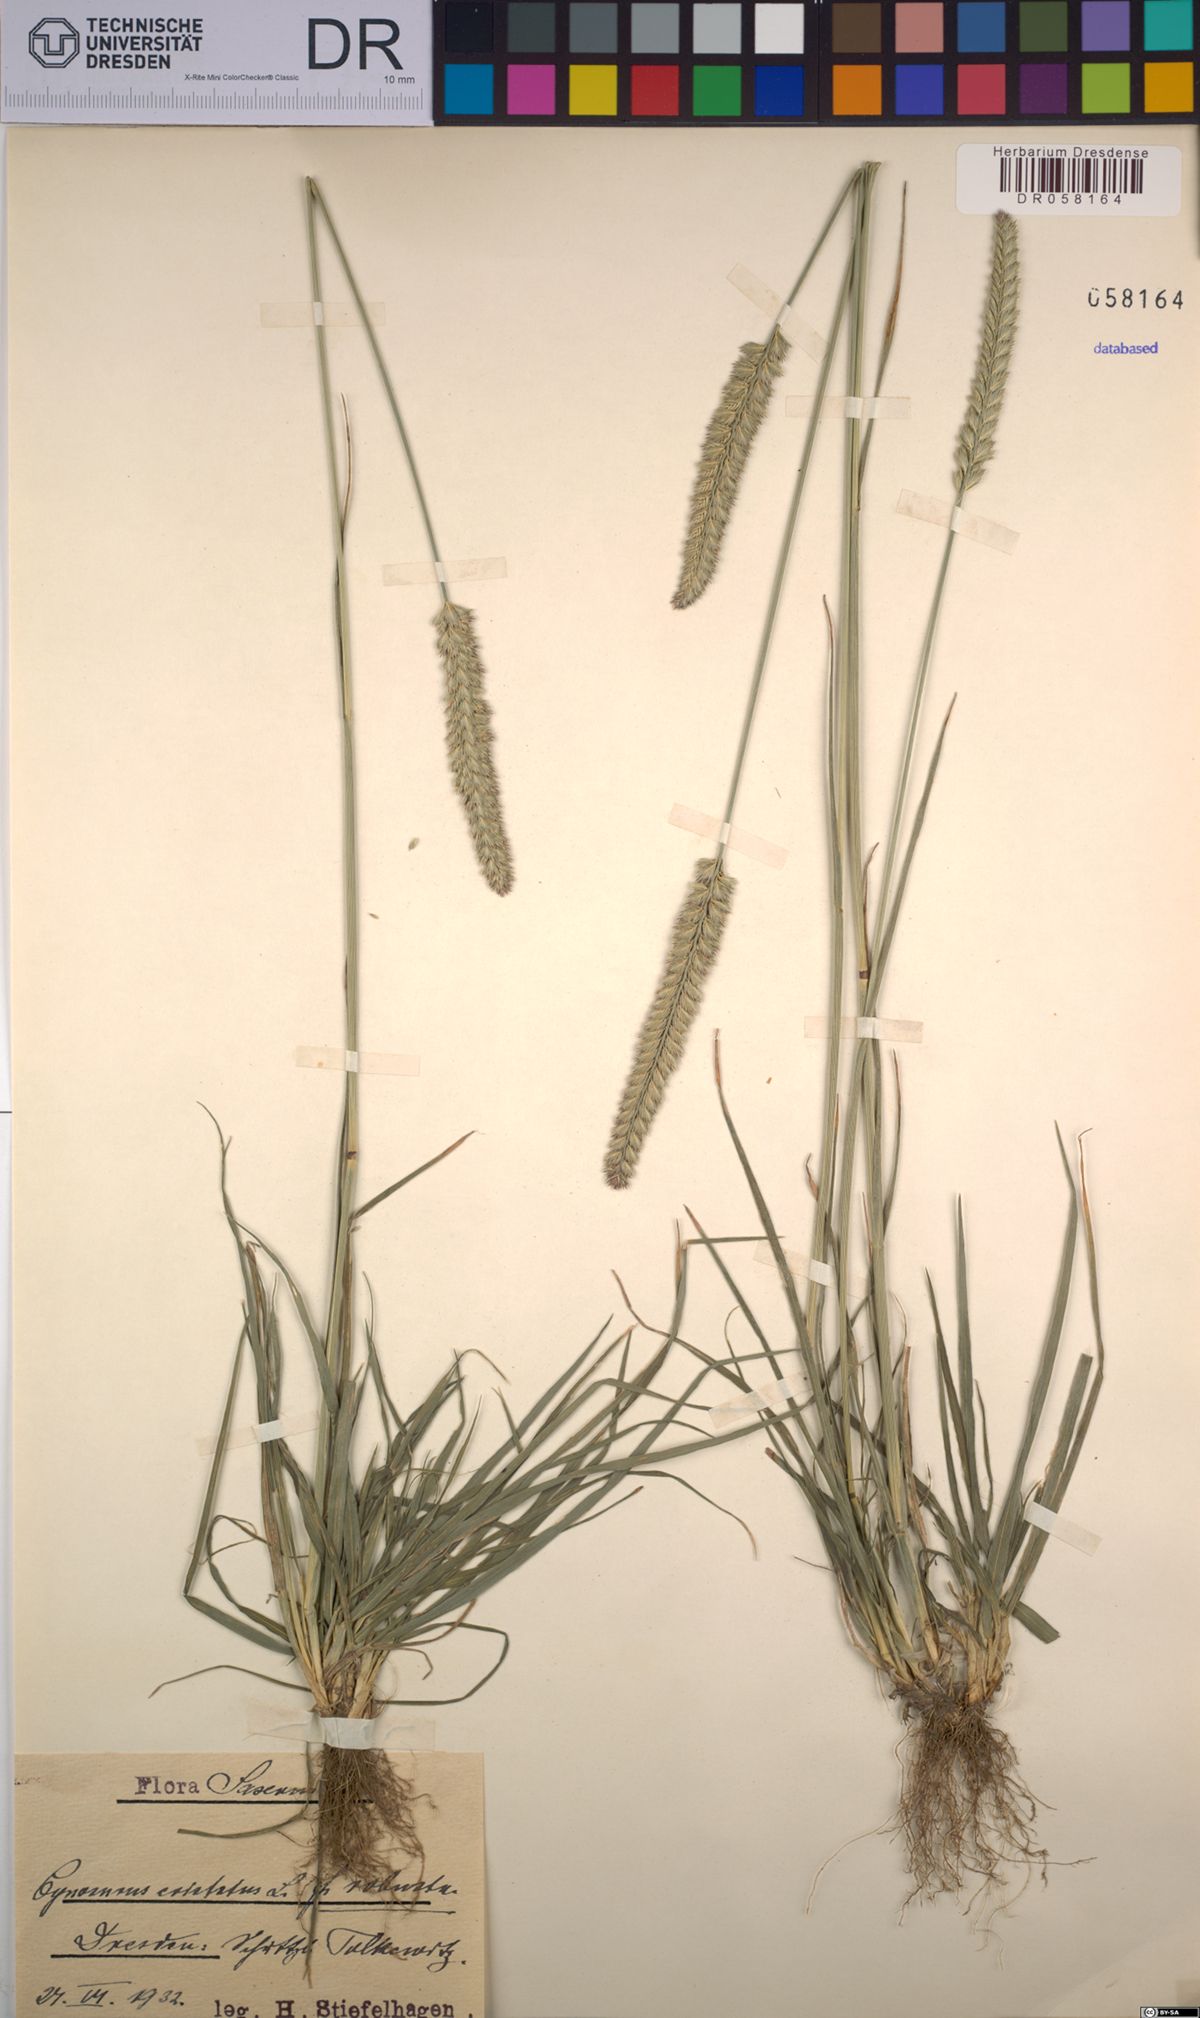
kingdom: Plantae
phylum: Tracheophyta
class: Liliopsida
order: Poales
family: Poaceae
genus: Cynosurus
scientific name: Cynosurus cristatus
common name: Crested dog's-tail
